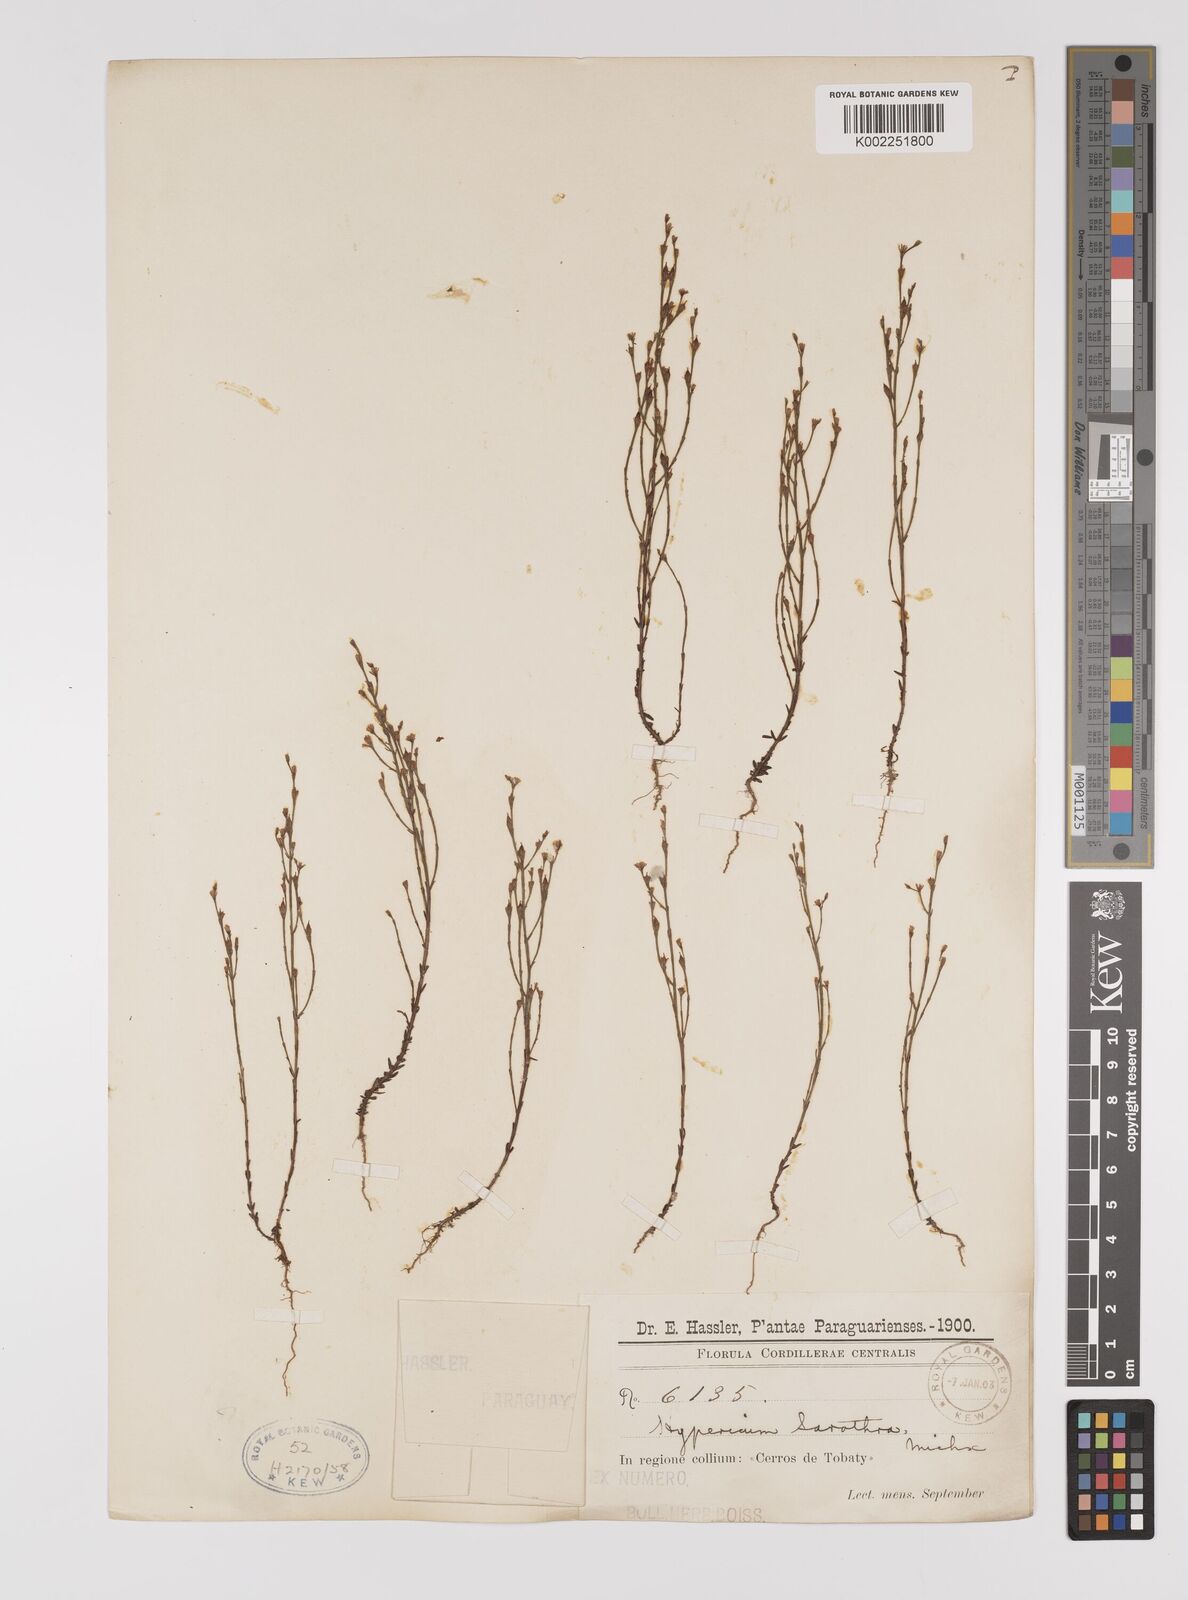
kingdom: Plantae
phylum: Tracheophyta
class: Magnoliopsida
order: Malpighiales
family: Hypericaceae
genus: Hypericum
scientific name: Hypericum gentianoides
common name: Gentian-leaved st. john's-wort
